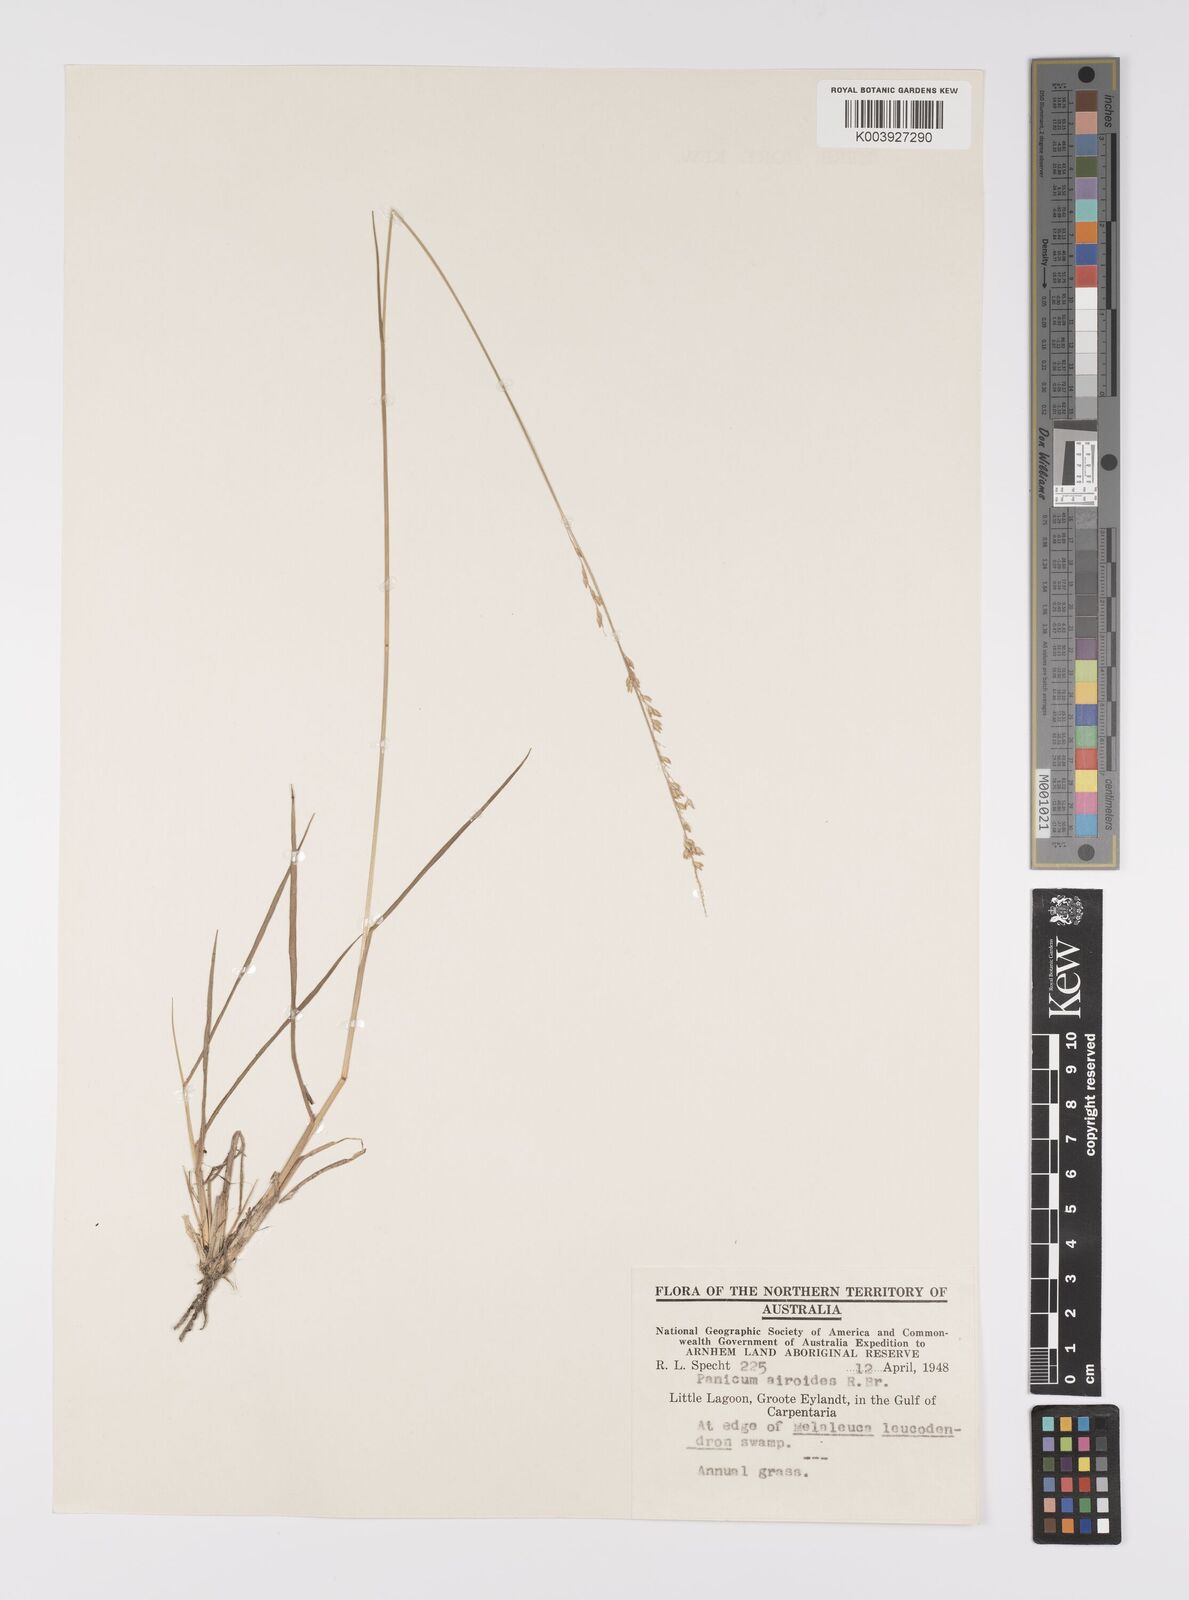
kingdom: Plantae
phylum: Tracheophyta
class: Liliopsida
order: Poales
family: Poaceae
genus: Whiteochloa
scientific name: Whiteochloa airoides
